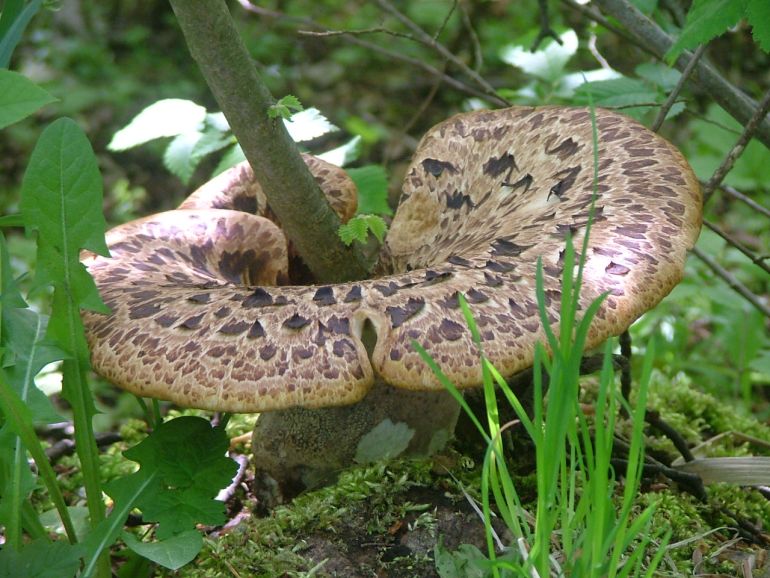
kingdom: Fungi
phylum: Basidiomycota
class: Agaricomycetes
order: Polyporales
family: Polyporaceae
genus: Cerioporus
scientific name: Cerioporus squamosus
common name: skællet stilkporesvamp
